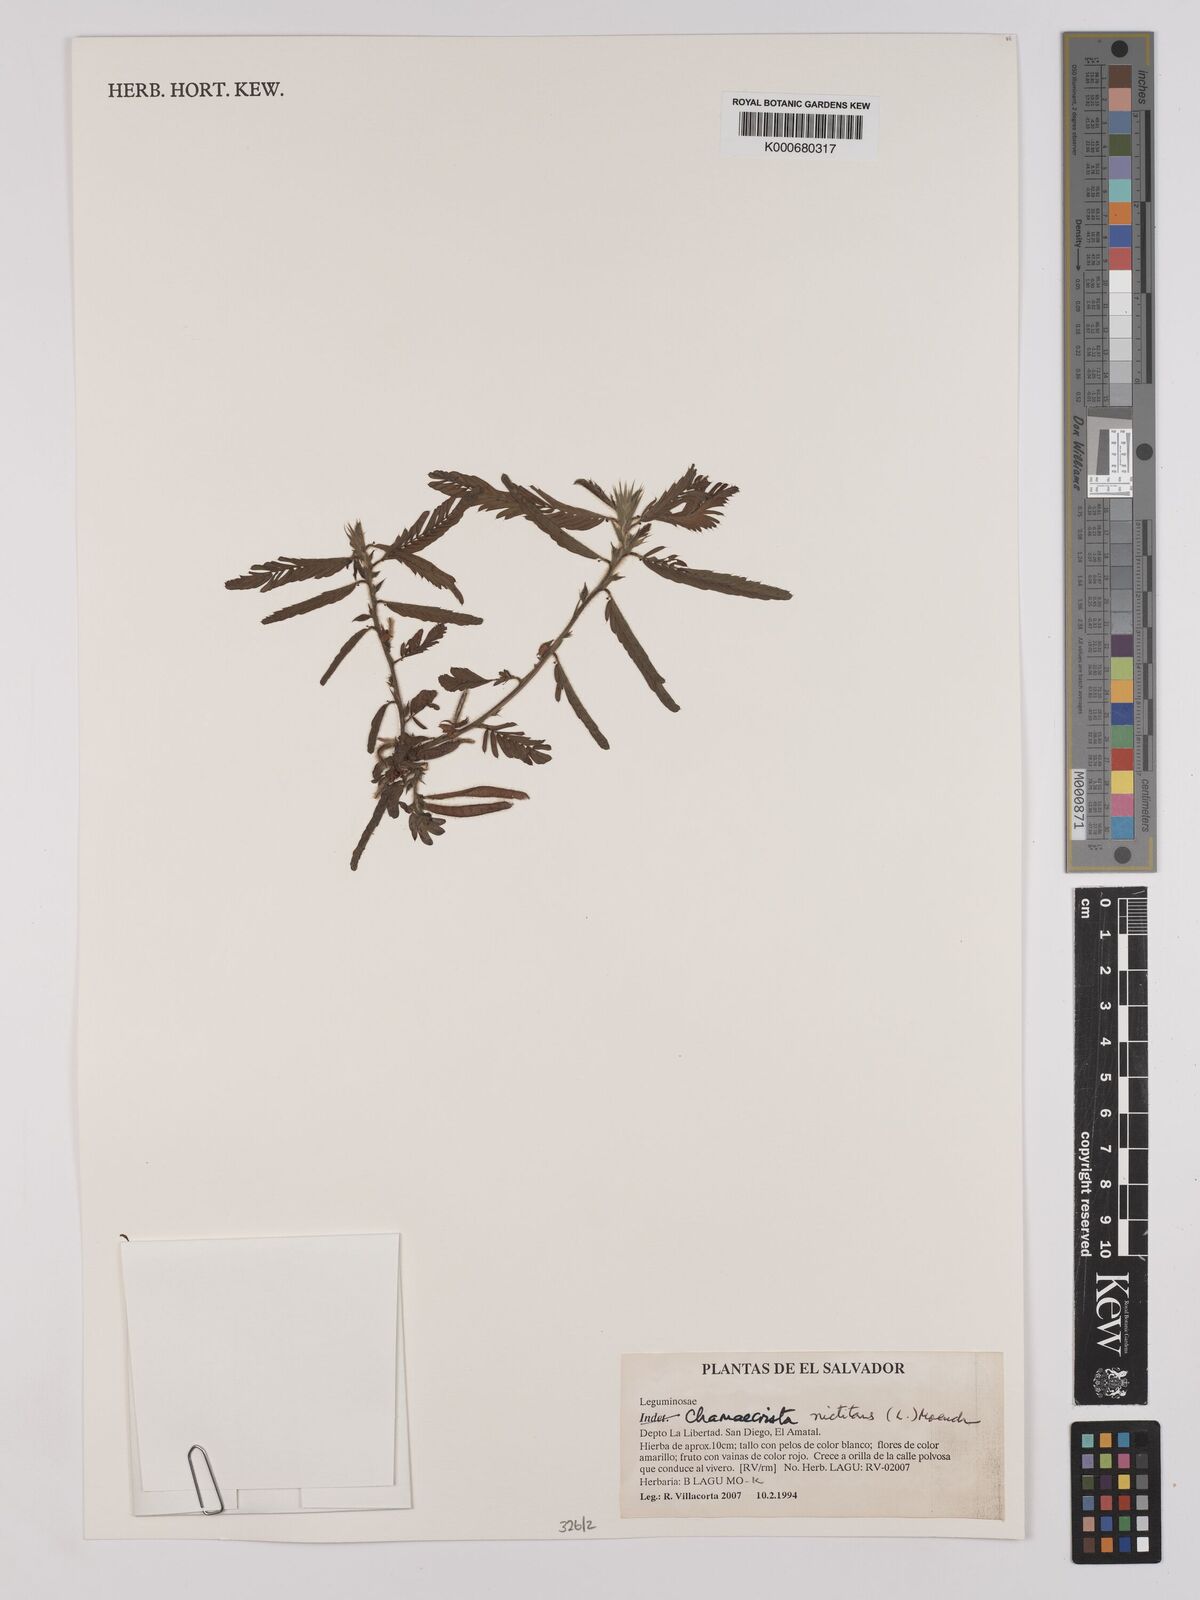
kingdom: Plantae
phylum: Tracheophyta
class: Magnoliopsida
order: Fabales
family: Fabaceae
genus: Chamaecrista
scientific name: Chamaecrista nictitans
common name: Sensitive cassia
